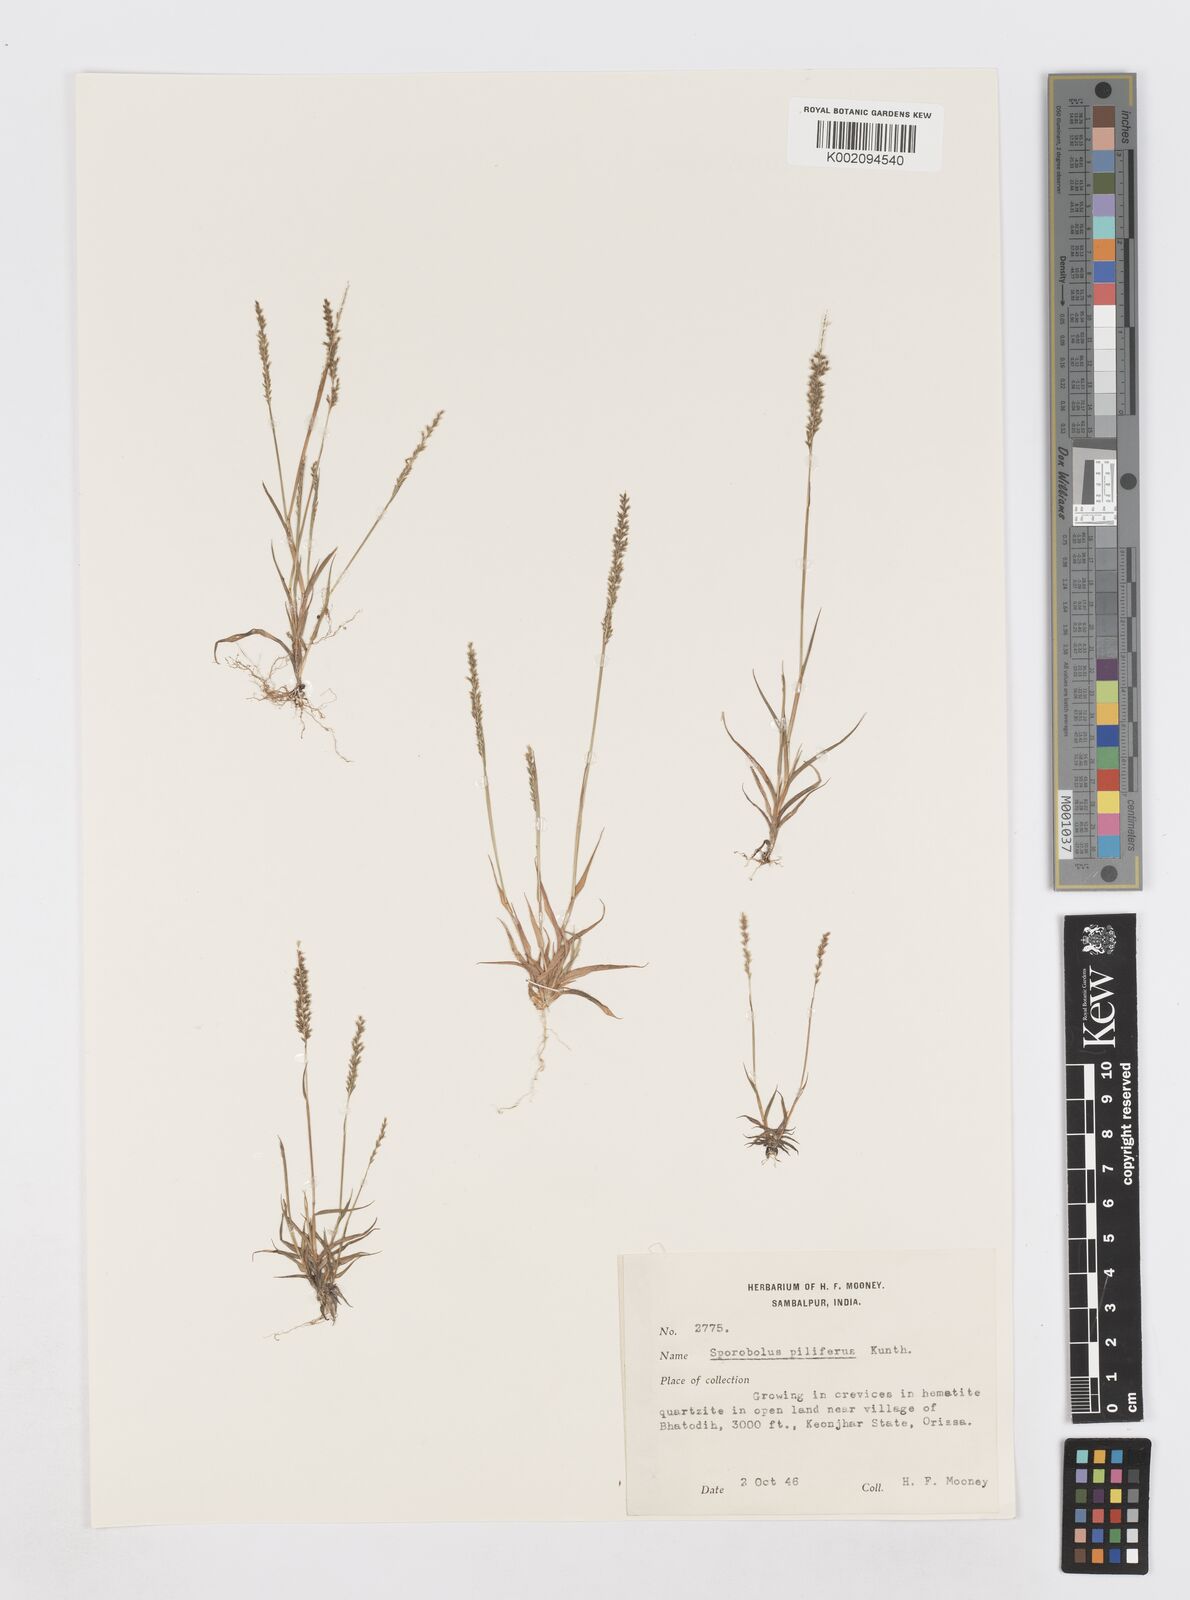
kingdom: Plantae
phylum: Tracheophyta
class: Liliopsida
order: Poales
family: Poaceae
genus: Sporobolus
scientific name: Sporobolus pilifer
